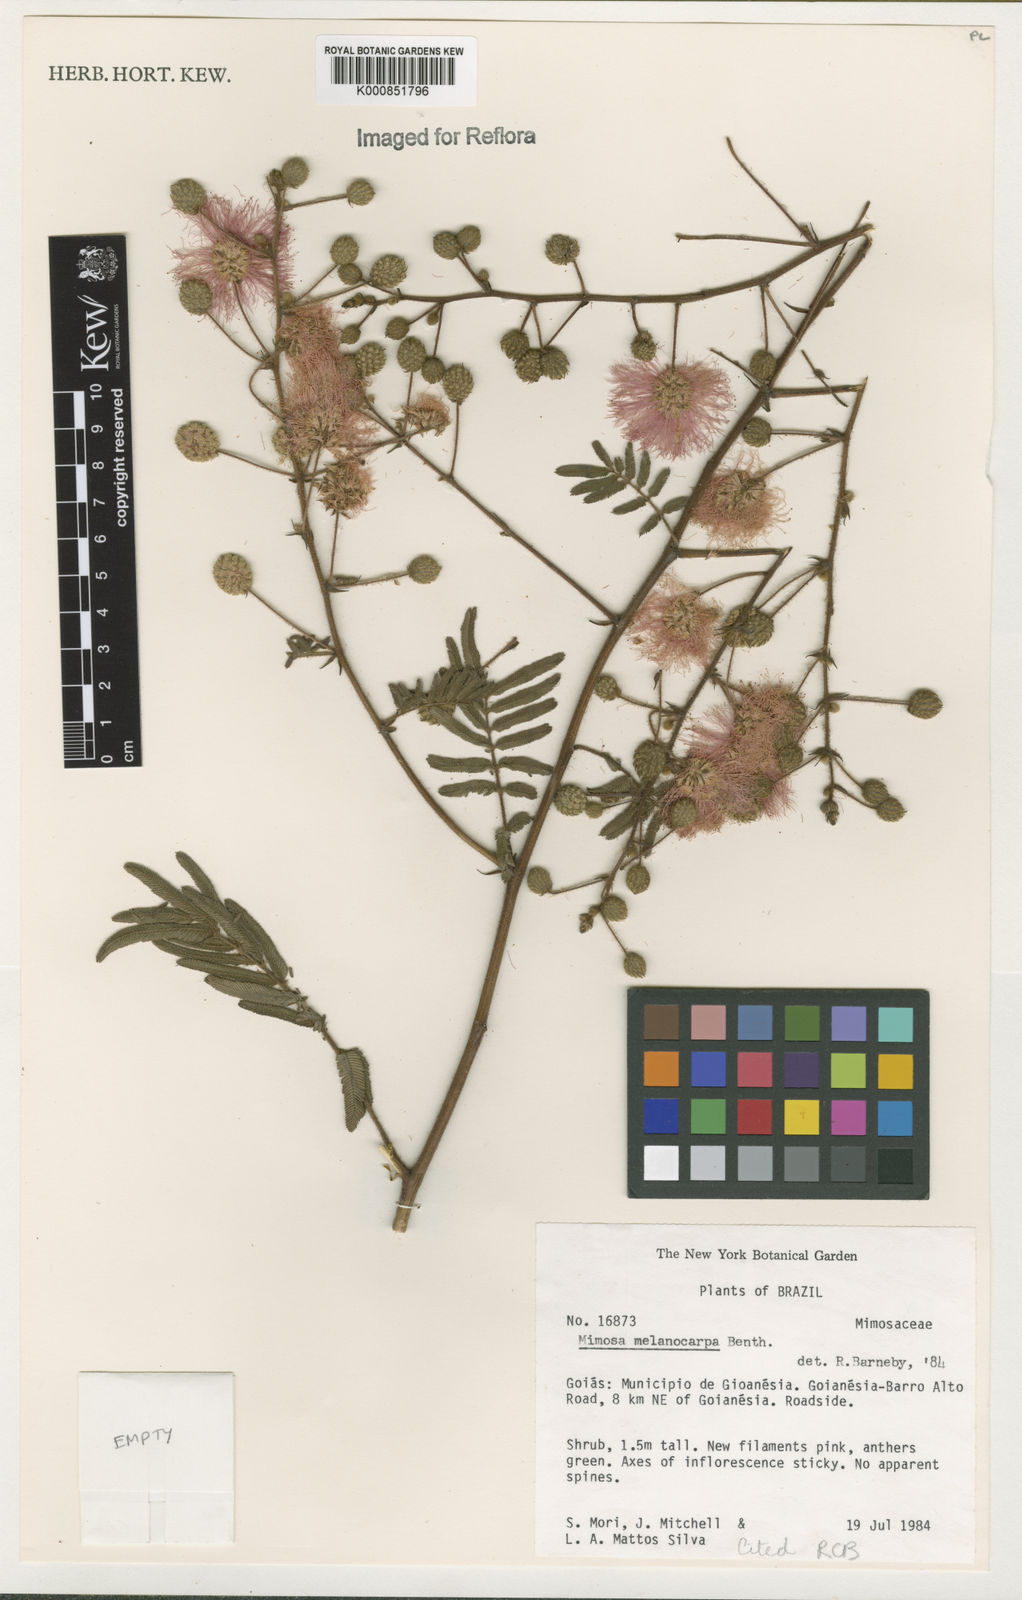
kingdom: Plantae
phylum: Tracheophyta
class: Magnoliopsida
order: Fabales
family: Fabaceae
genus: Mimosa
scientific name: Mimosa melanocarpa
